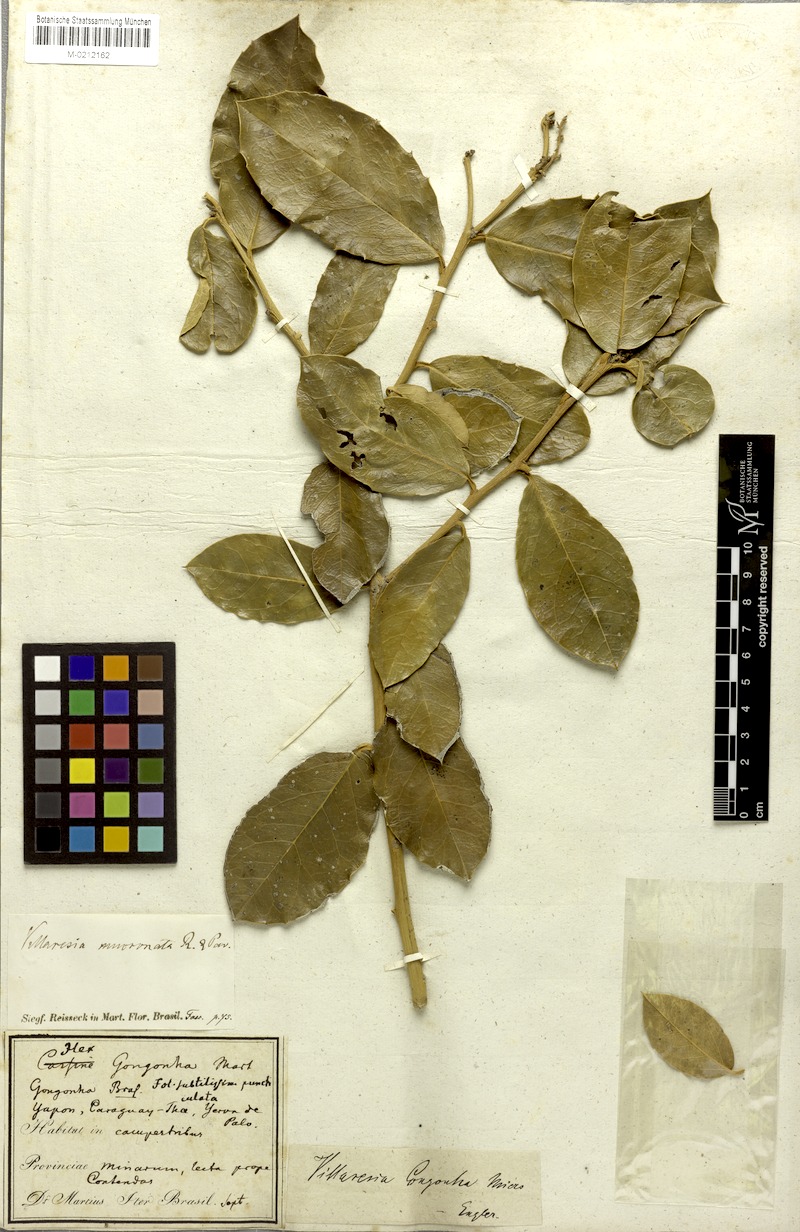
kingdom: Plantae
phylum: Tracheophyta
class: Magnoliopsida
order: Cardiopteridales
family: Cardiopteridaceae
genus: Citronella
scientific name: Citronella mucronata
